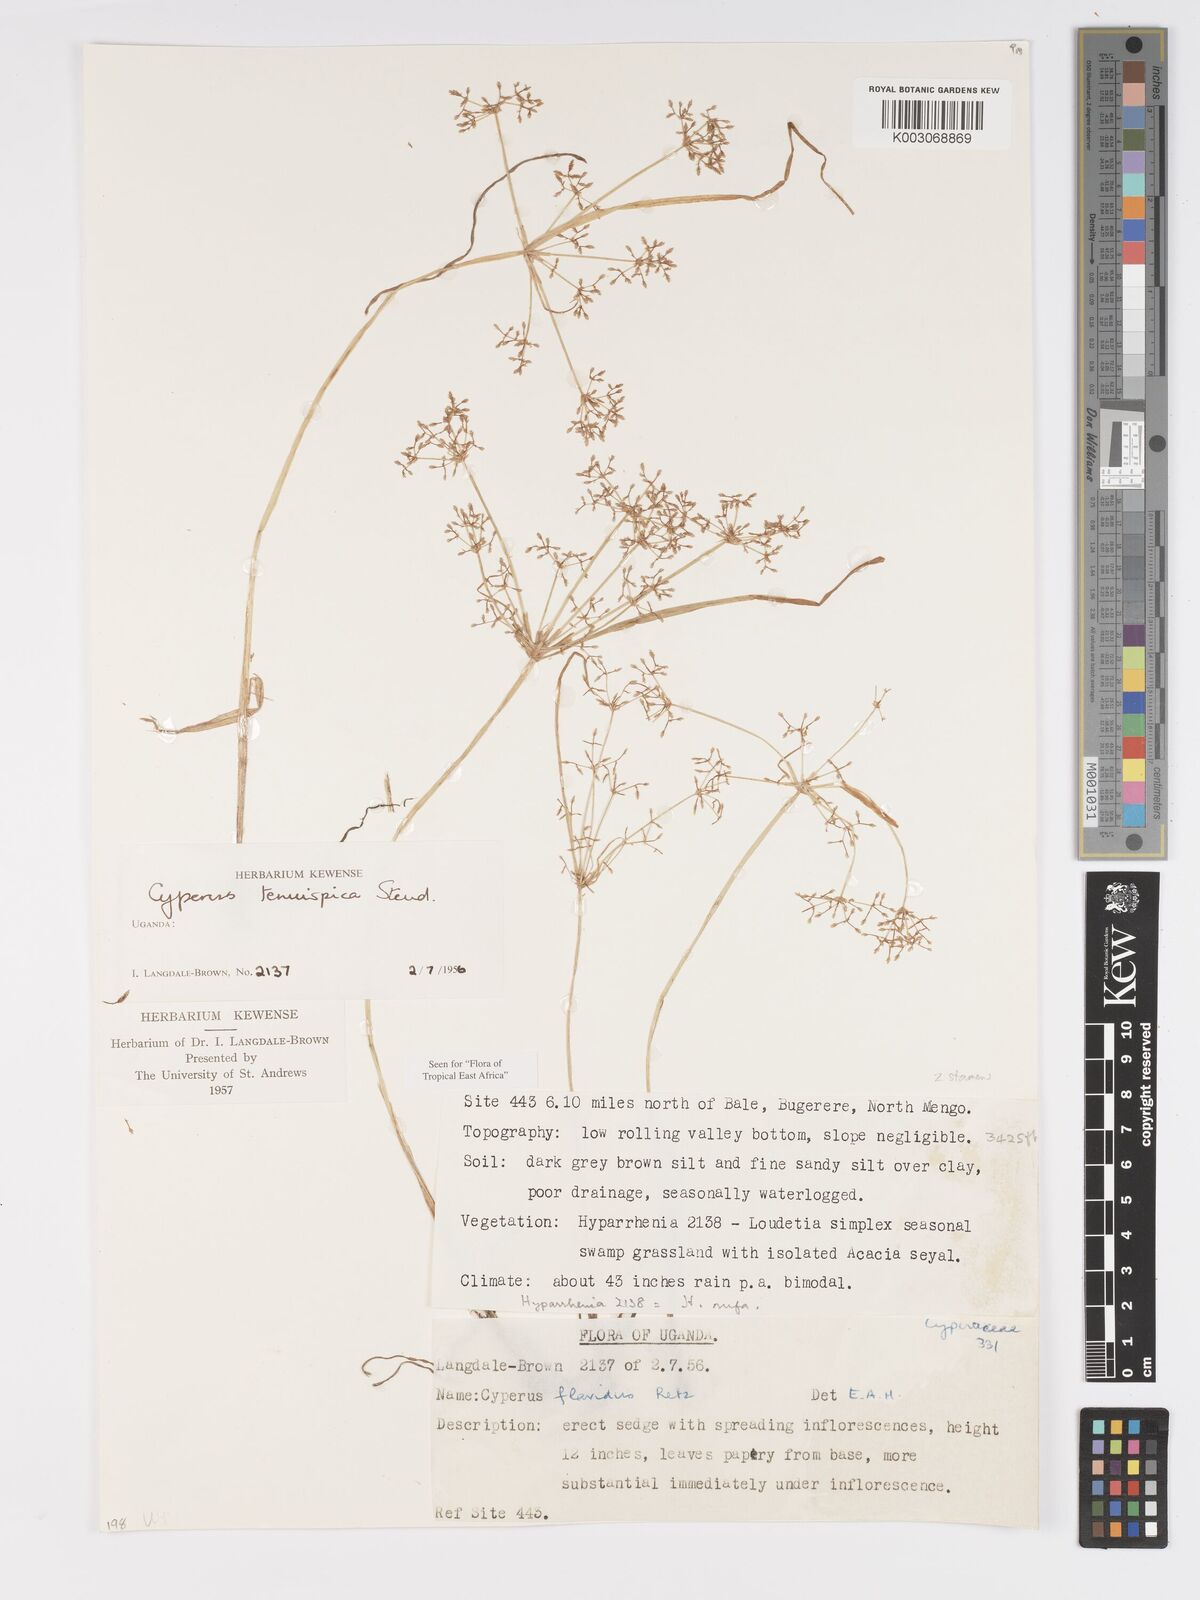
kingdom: Plantae
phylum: Tracheophyta
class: Liliopsida
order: Poales
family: Cyperaceae
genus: Cyperus
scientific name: Cyperus tenuispica
